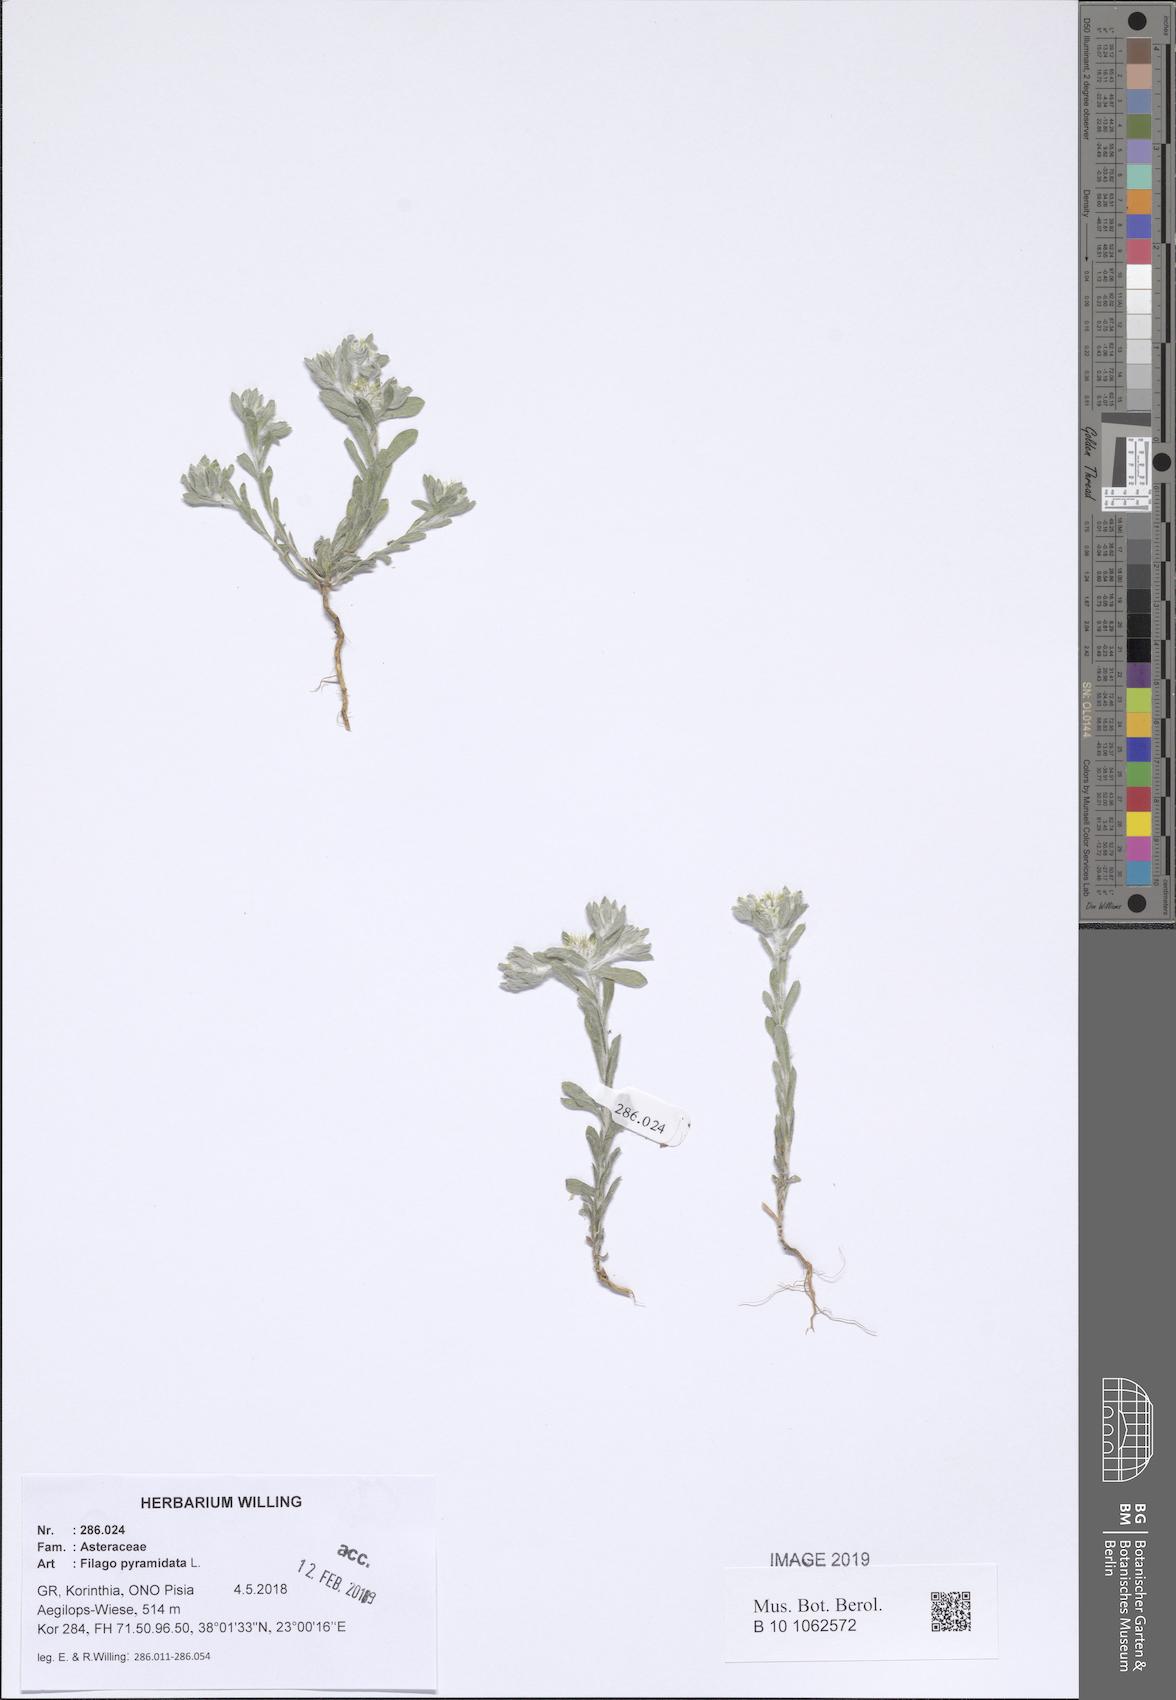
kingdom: Plantae
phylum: Tracheophyta
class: Magnoliopsida
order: Asterales
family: Asteraceae
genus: Filago
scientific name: Filago pyramidata
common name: Broad-leaved cudweed
